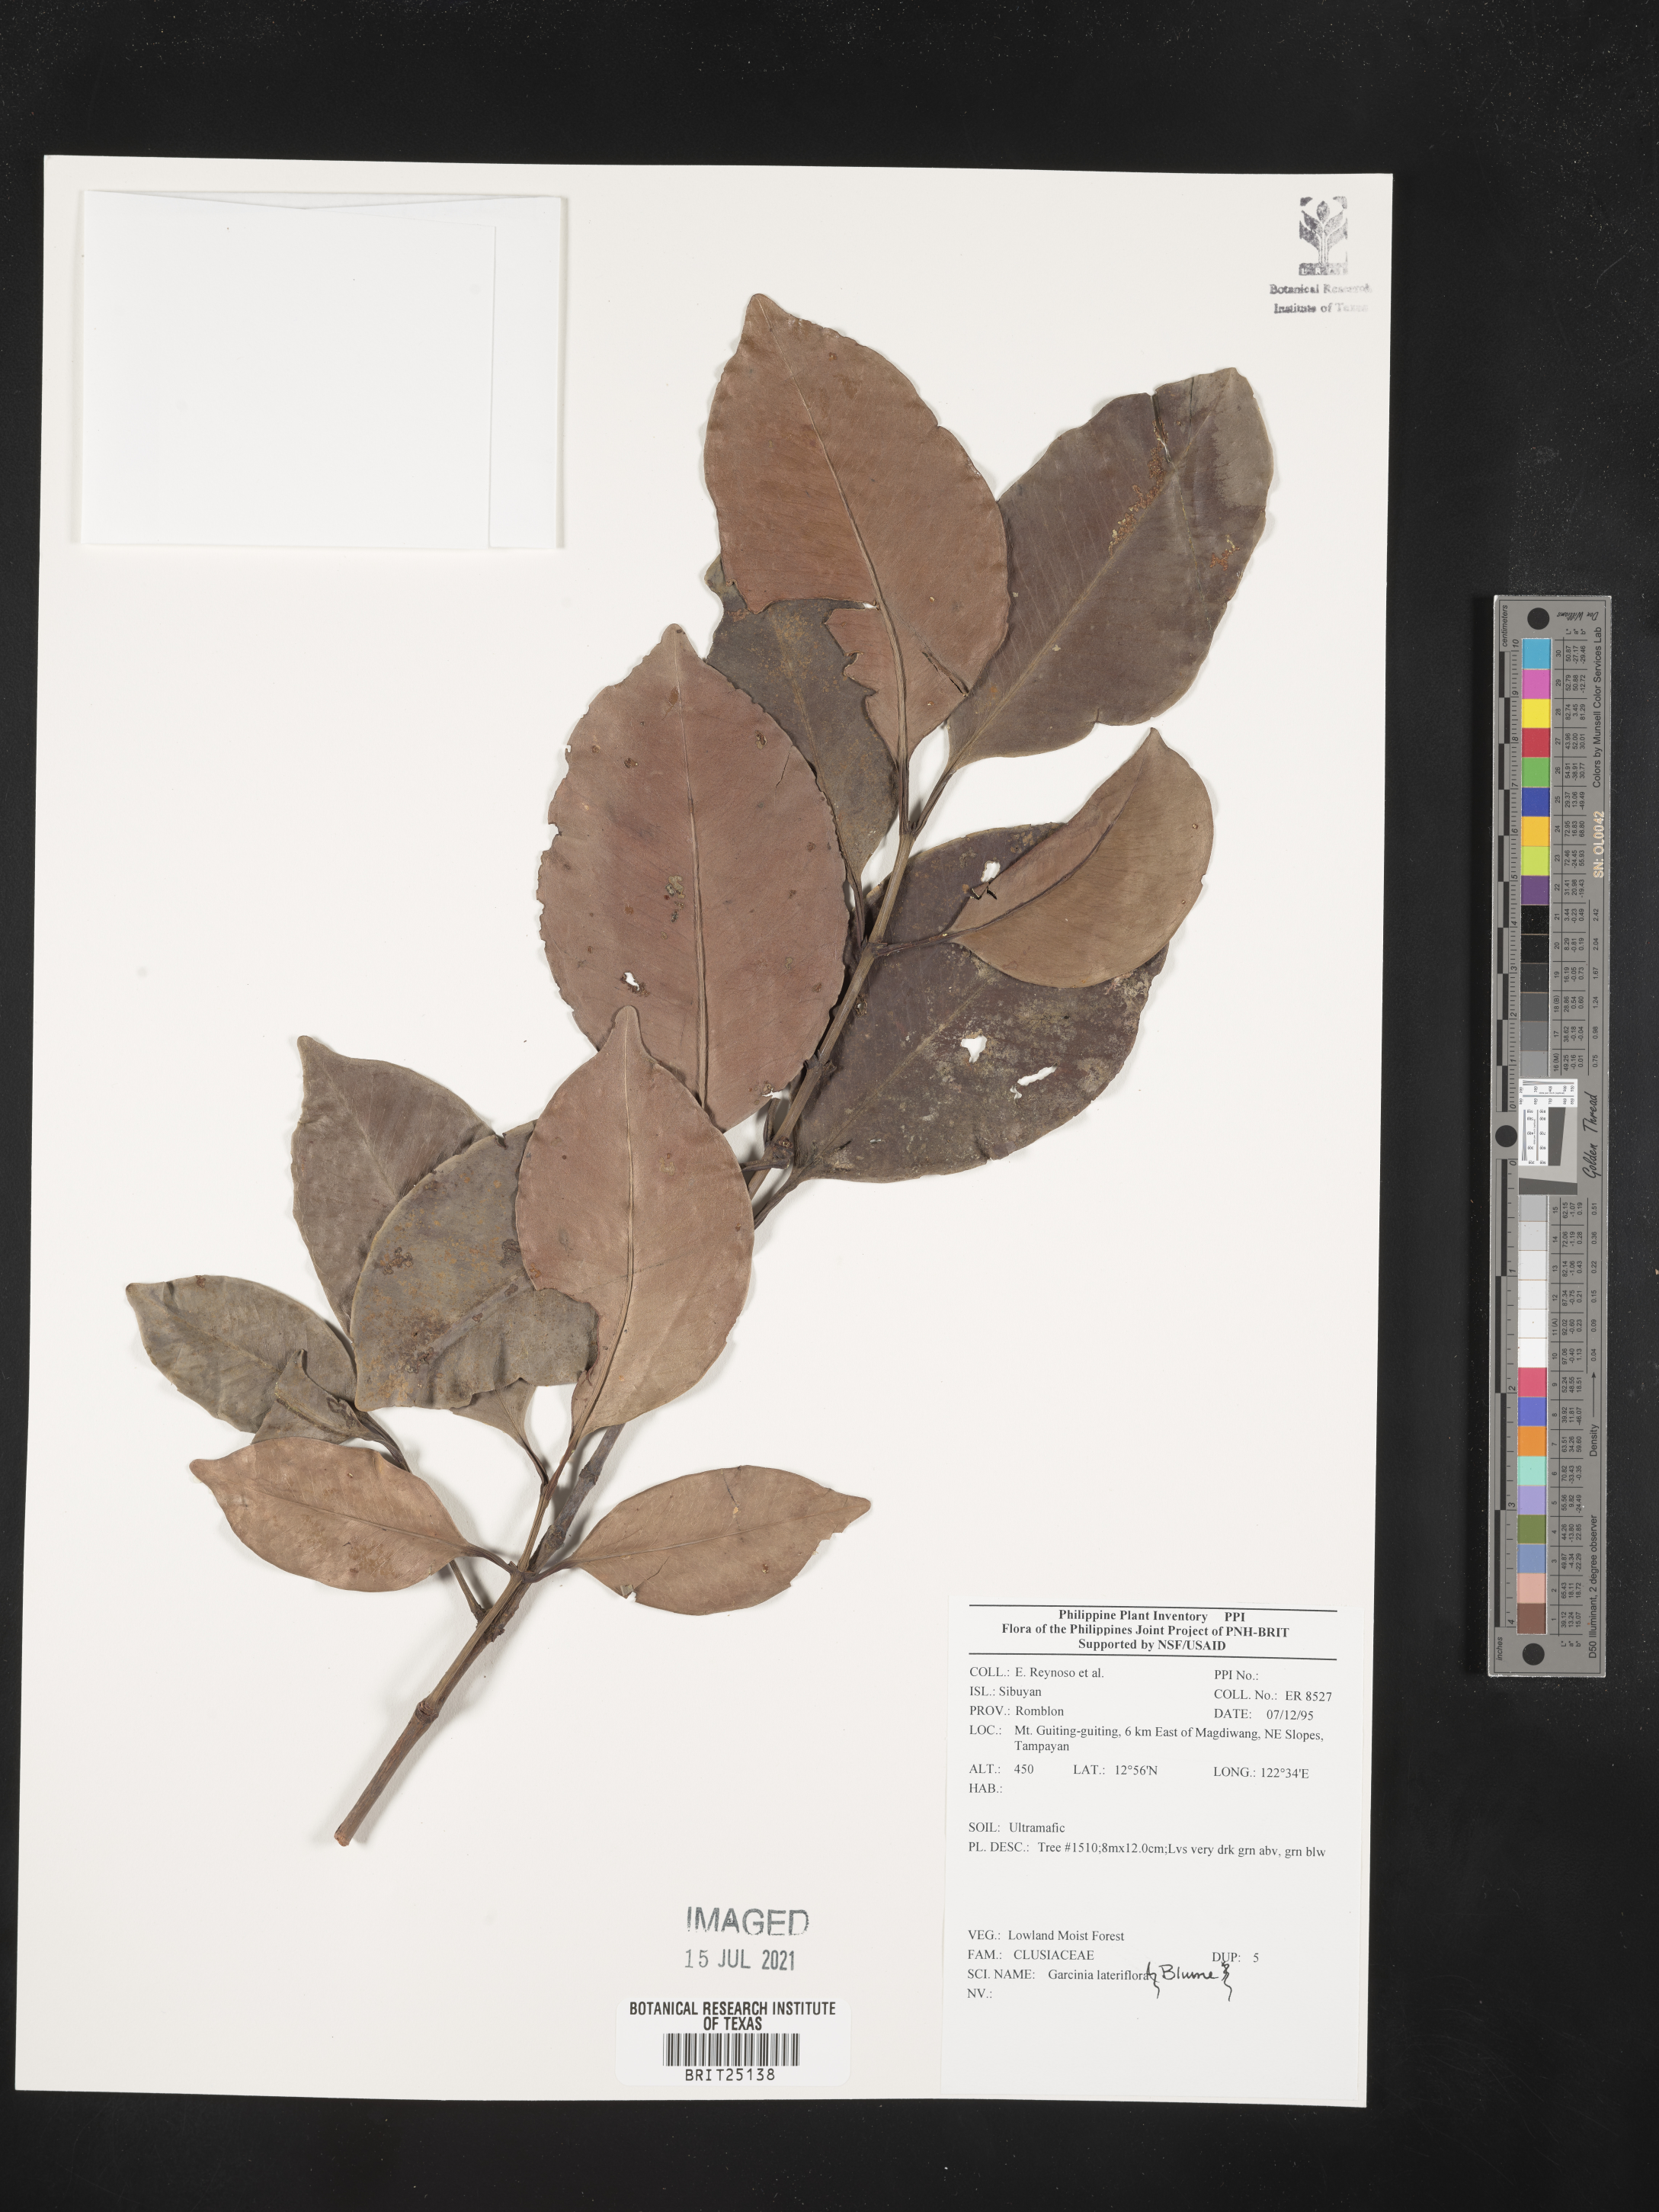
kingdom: Plantae
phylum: Tracheophyta
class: Magnoliopsida
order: Malpighiales
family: Clusiaceae
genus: Garcinia
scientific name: Garcinia lateriflora
